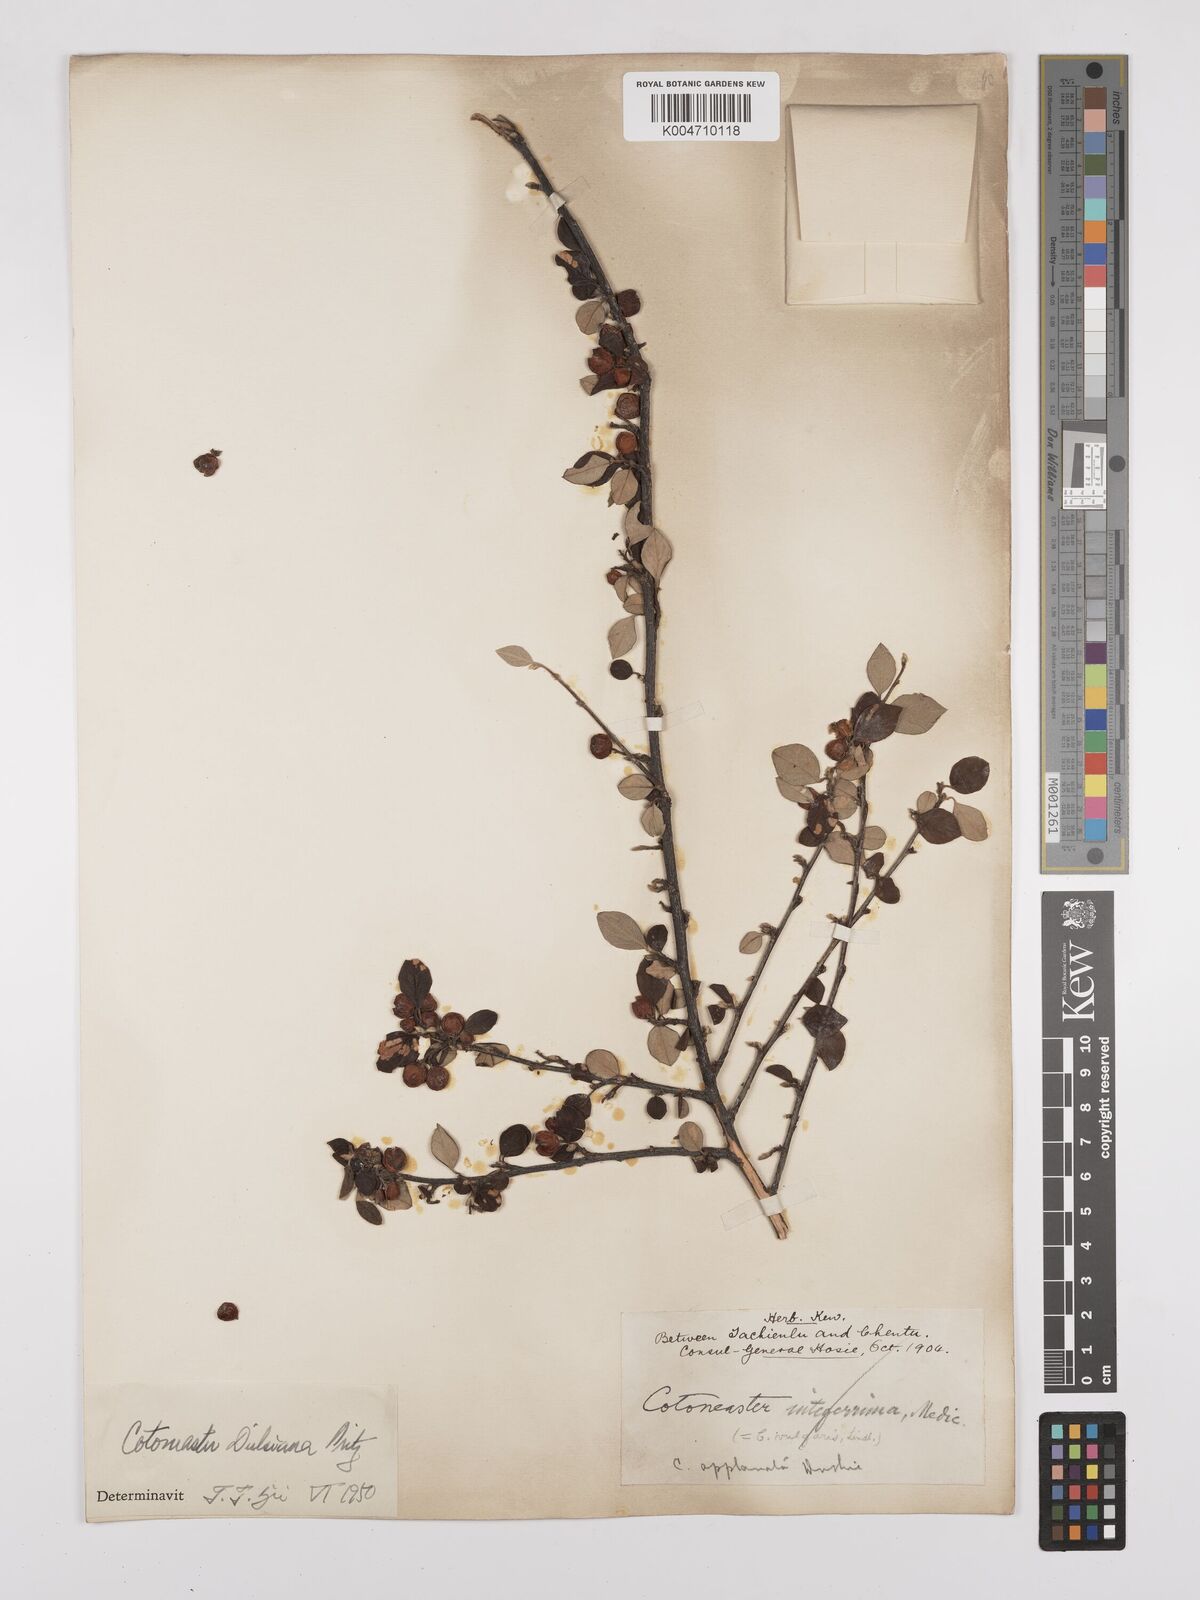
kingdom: Plantae
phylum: Tracheophyta
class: Magnoliopsida
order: Rosales
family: Rosaceae
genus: Cotoneaster
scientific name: Cotoneaster dielsianus
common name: Diels's cotoneaster
